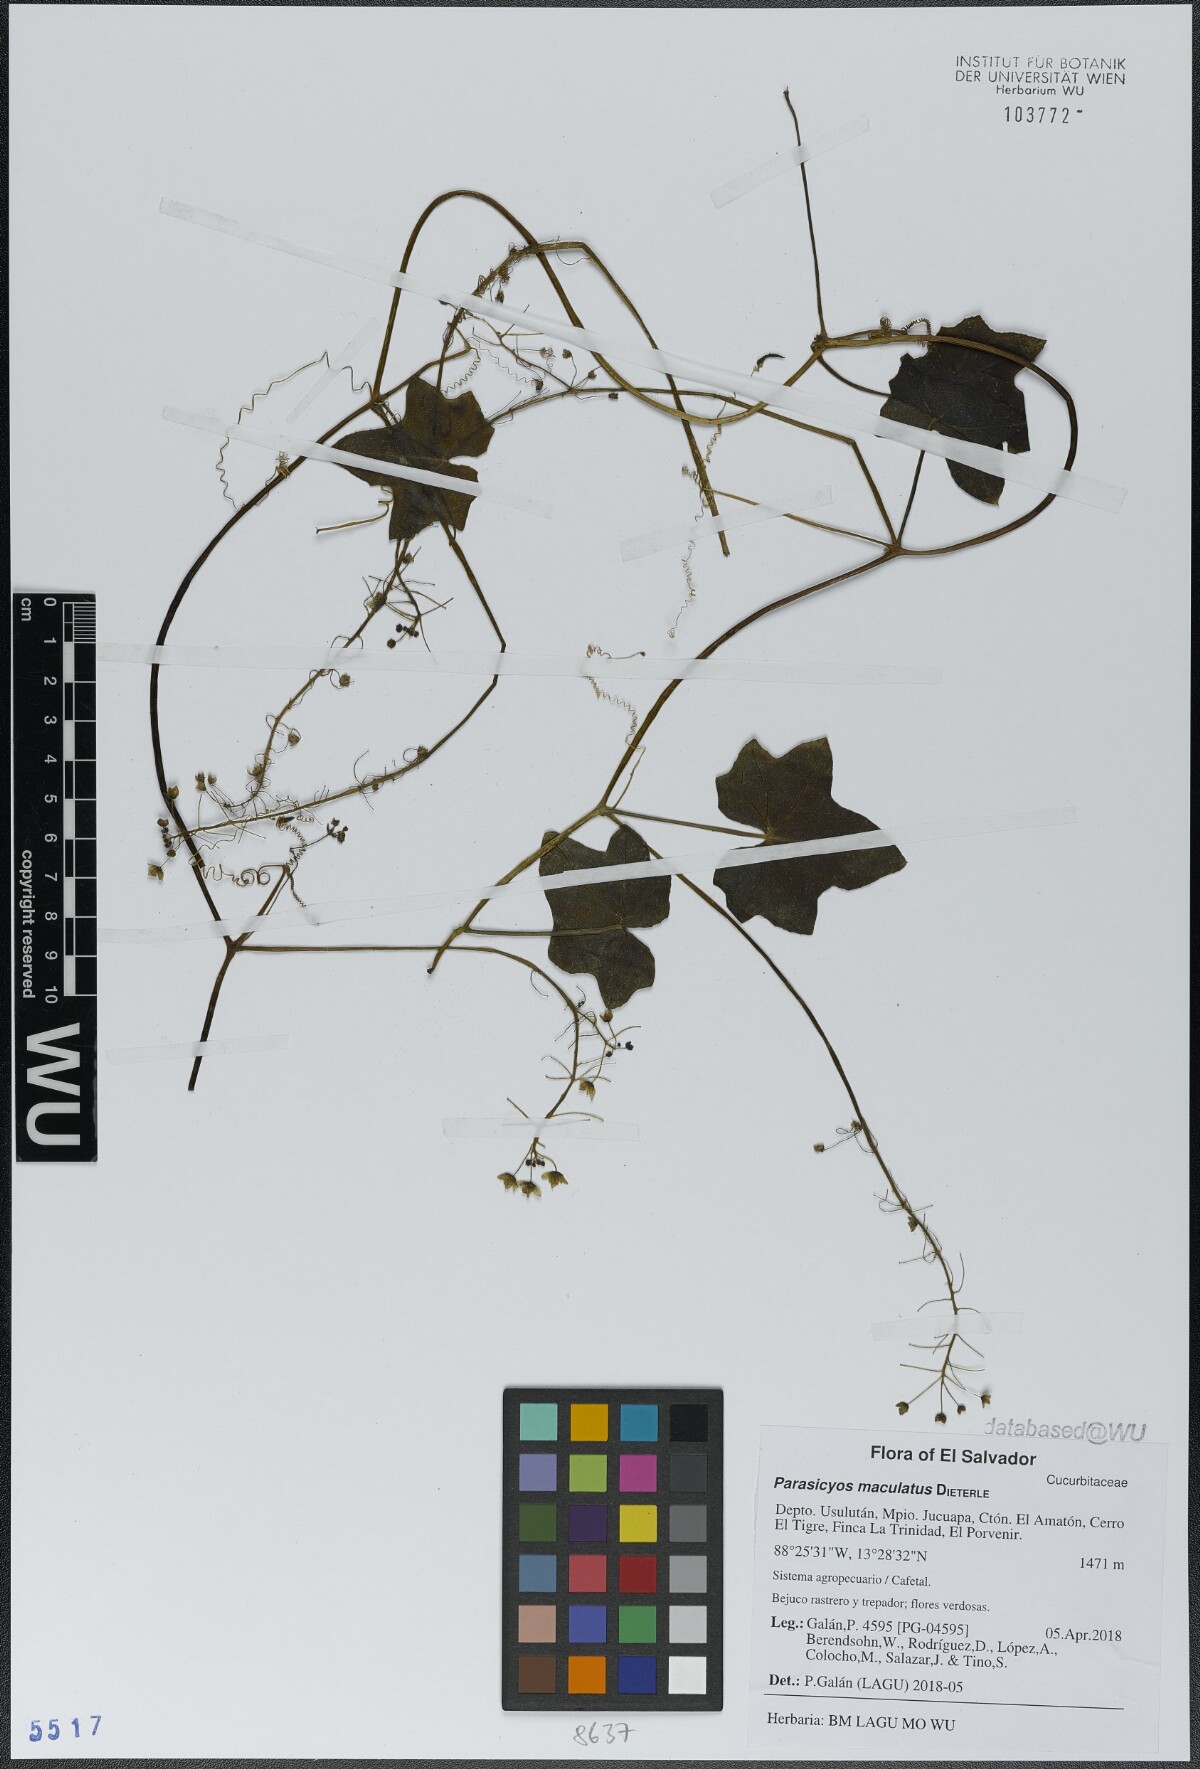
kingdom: Plantae
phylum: Tracheophyta
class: Magnoliopsida
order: Cucurbitales
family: Cucurbitaceae
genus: Parasicyos
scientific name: Parasicyos maculatus
